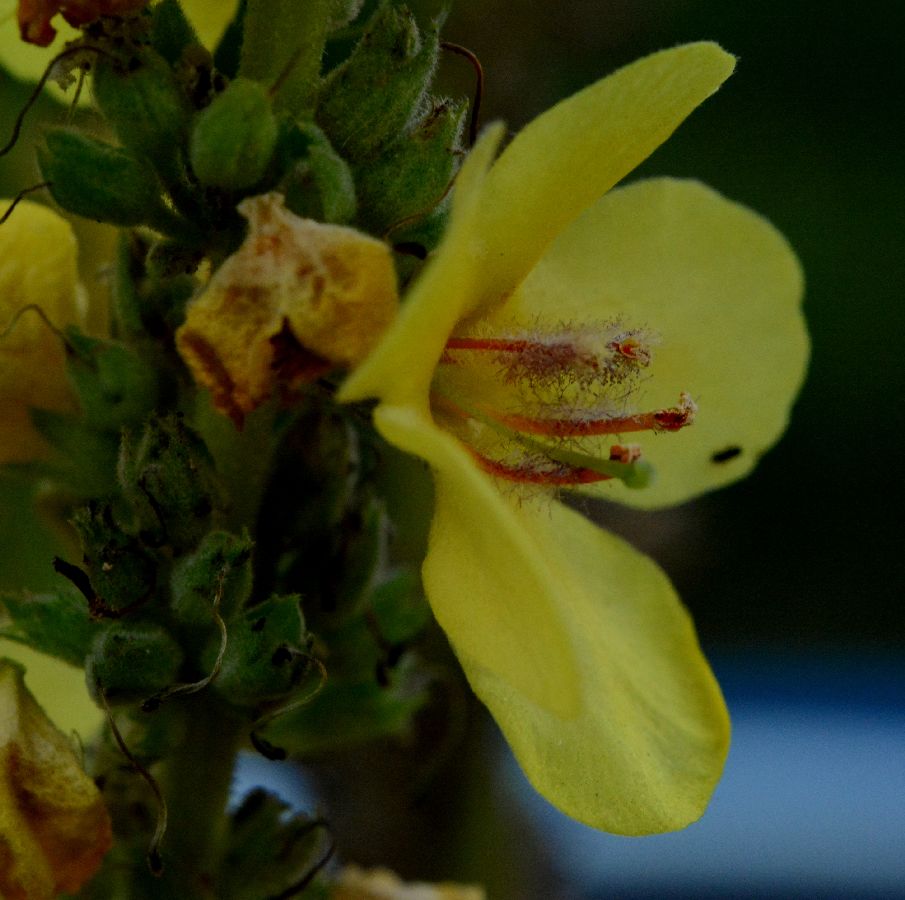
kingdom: Plantae
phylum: Tracheophyta
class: Magnoliopsida
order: Lamiales
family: Scrophulariaceae
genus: Verbascum
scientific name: Verbascum
